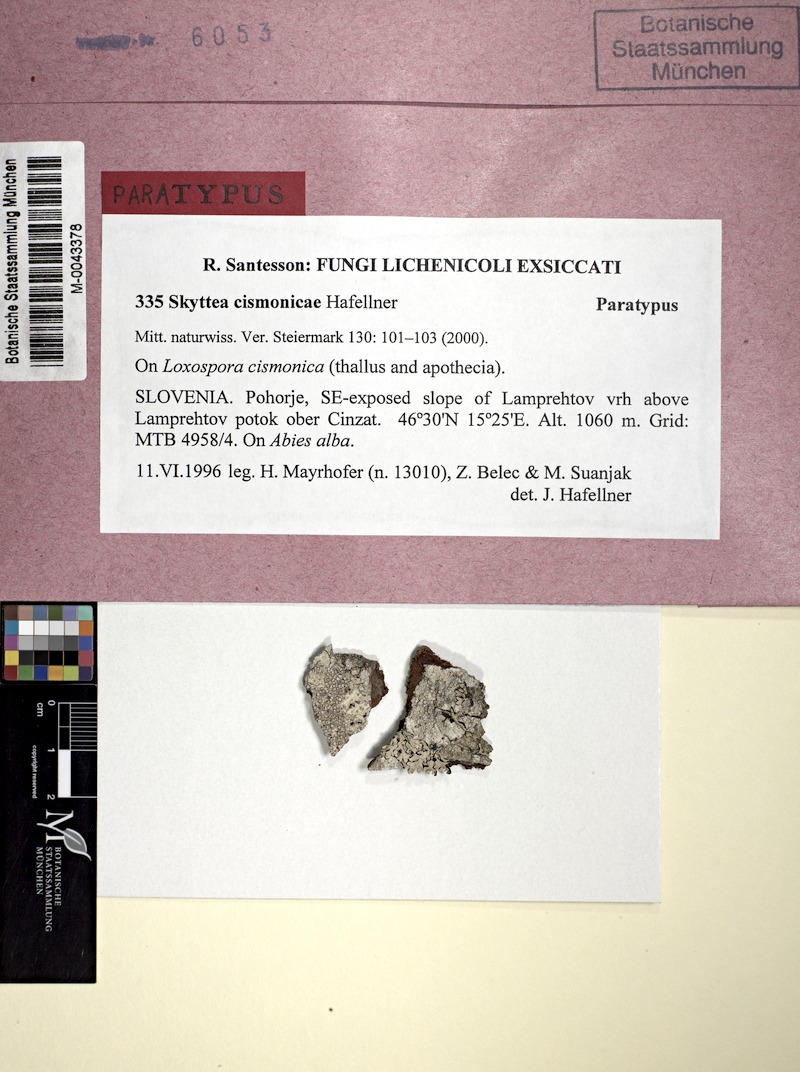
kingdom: Fungi
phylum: Ascomycota
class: Leotiomycetes
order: Helotiales
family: Cordieritidaceae
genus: Skyttea
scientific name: Skyttea cismonicae
